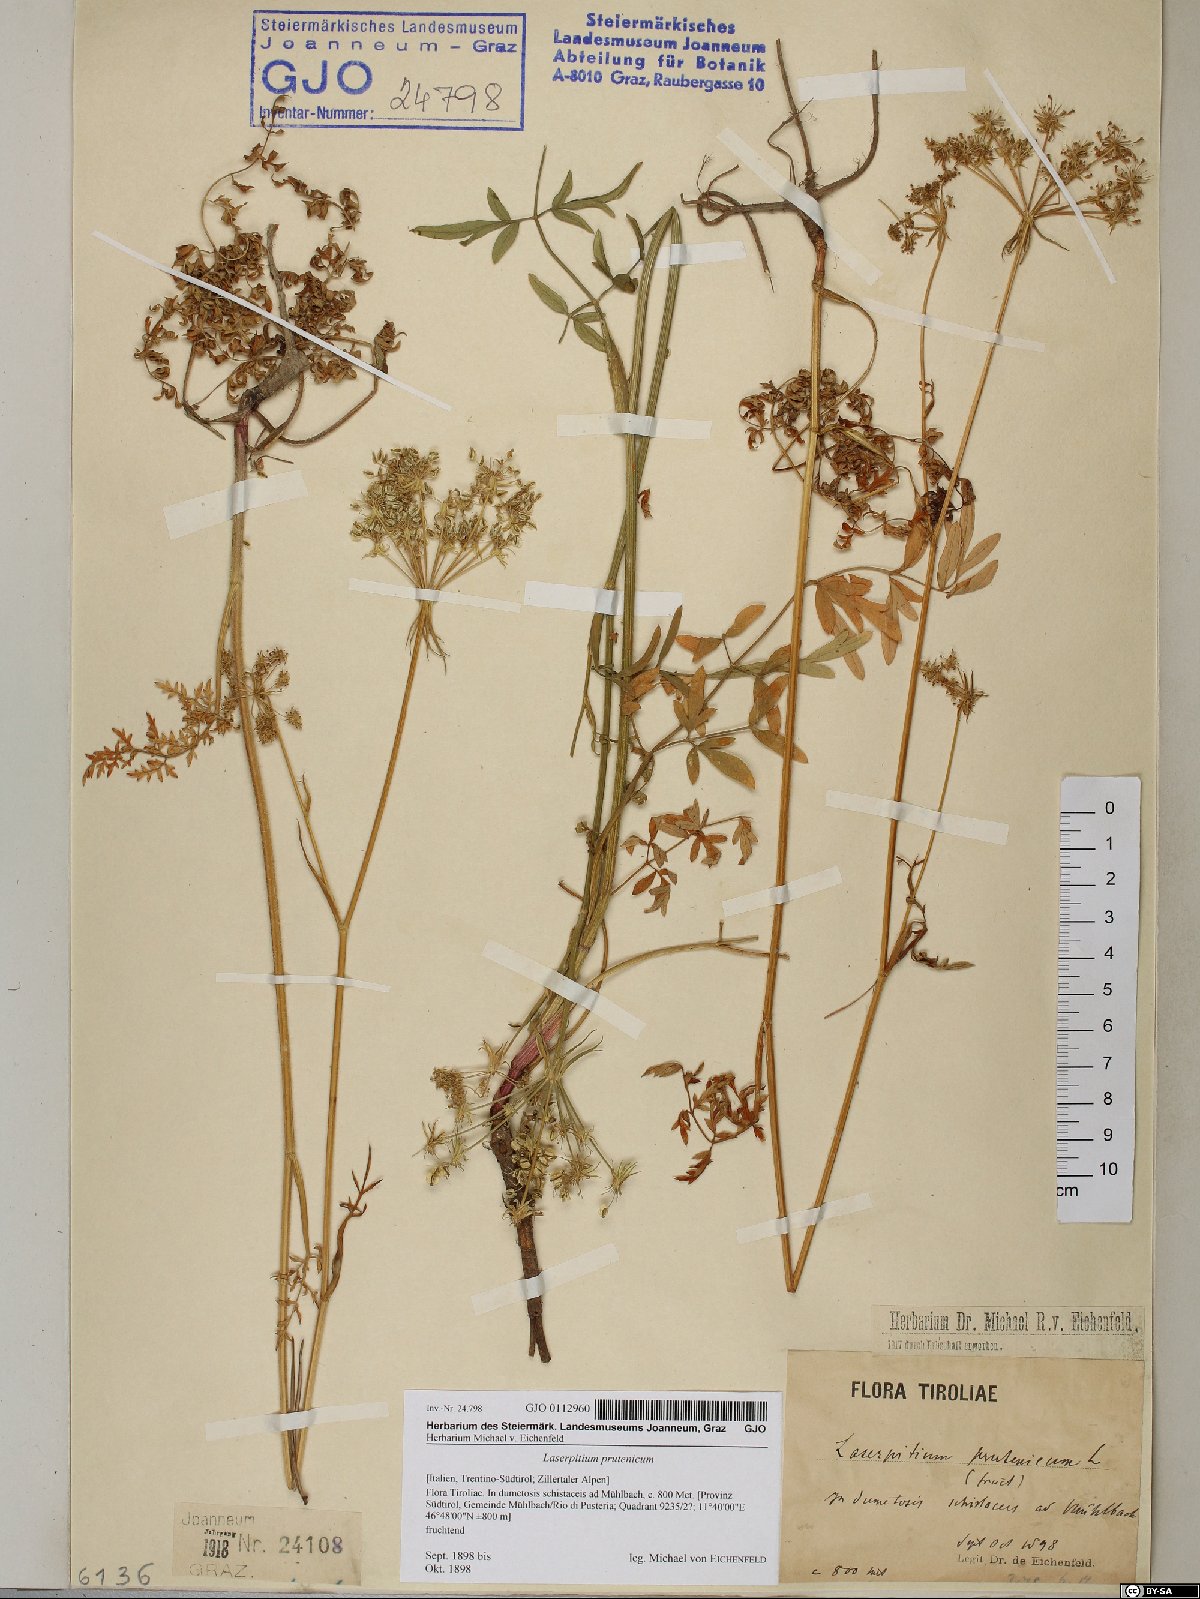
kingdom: Plantae
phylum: Tracheophyta
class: Magnoliopsida
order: Apiales
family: Apiaceae
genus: Silphiodaucus
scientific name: Silphiodaucus prutenicus
